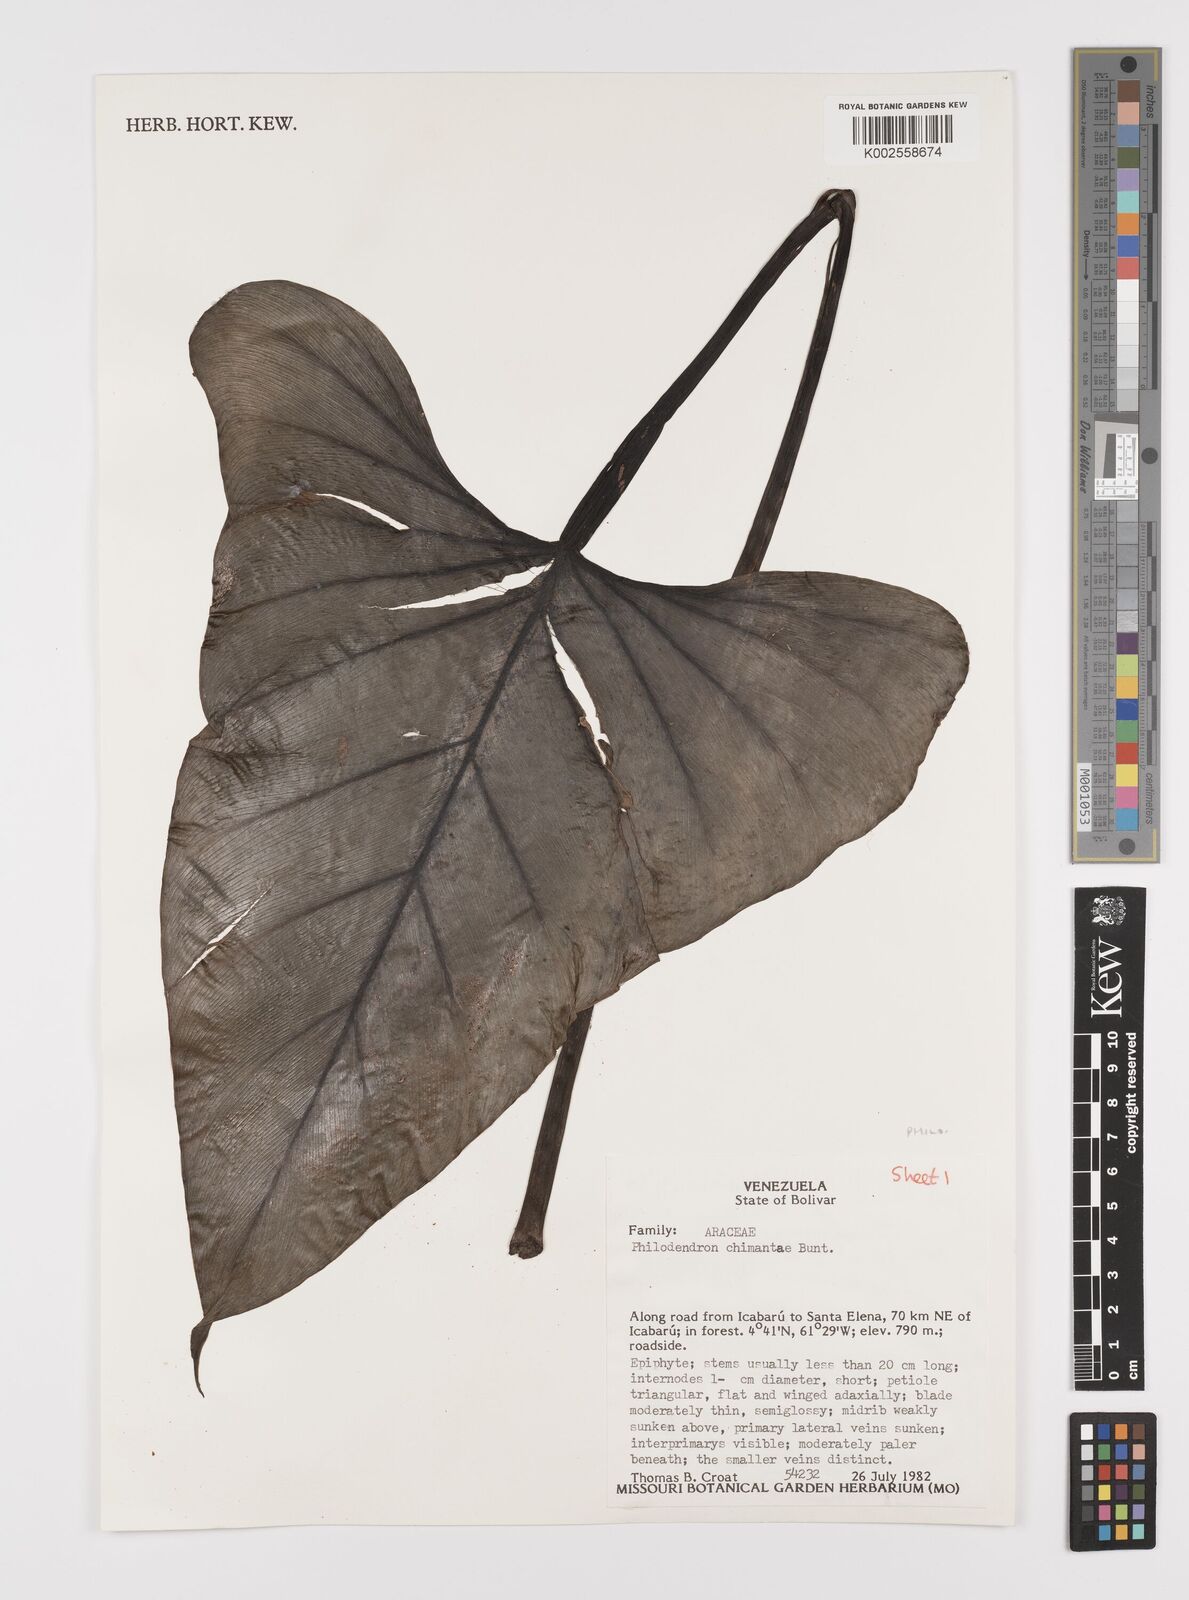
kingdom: Plantae
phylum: Tracheophyta
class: Liliopsida
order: Alismatales
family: Araceae
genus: Philodendron
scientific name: Philodendron chimantae
